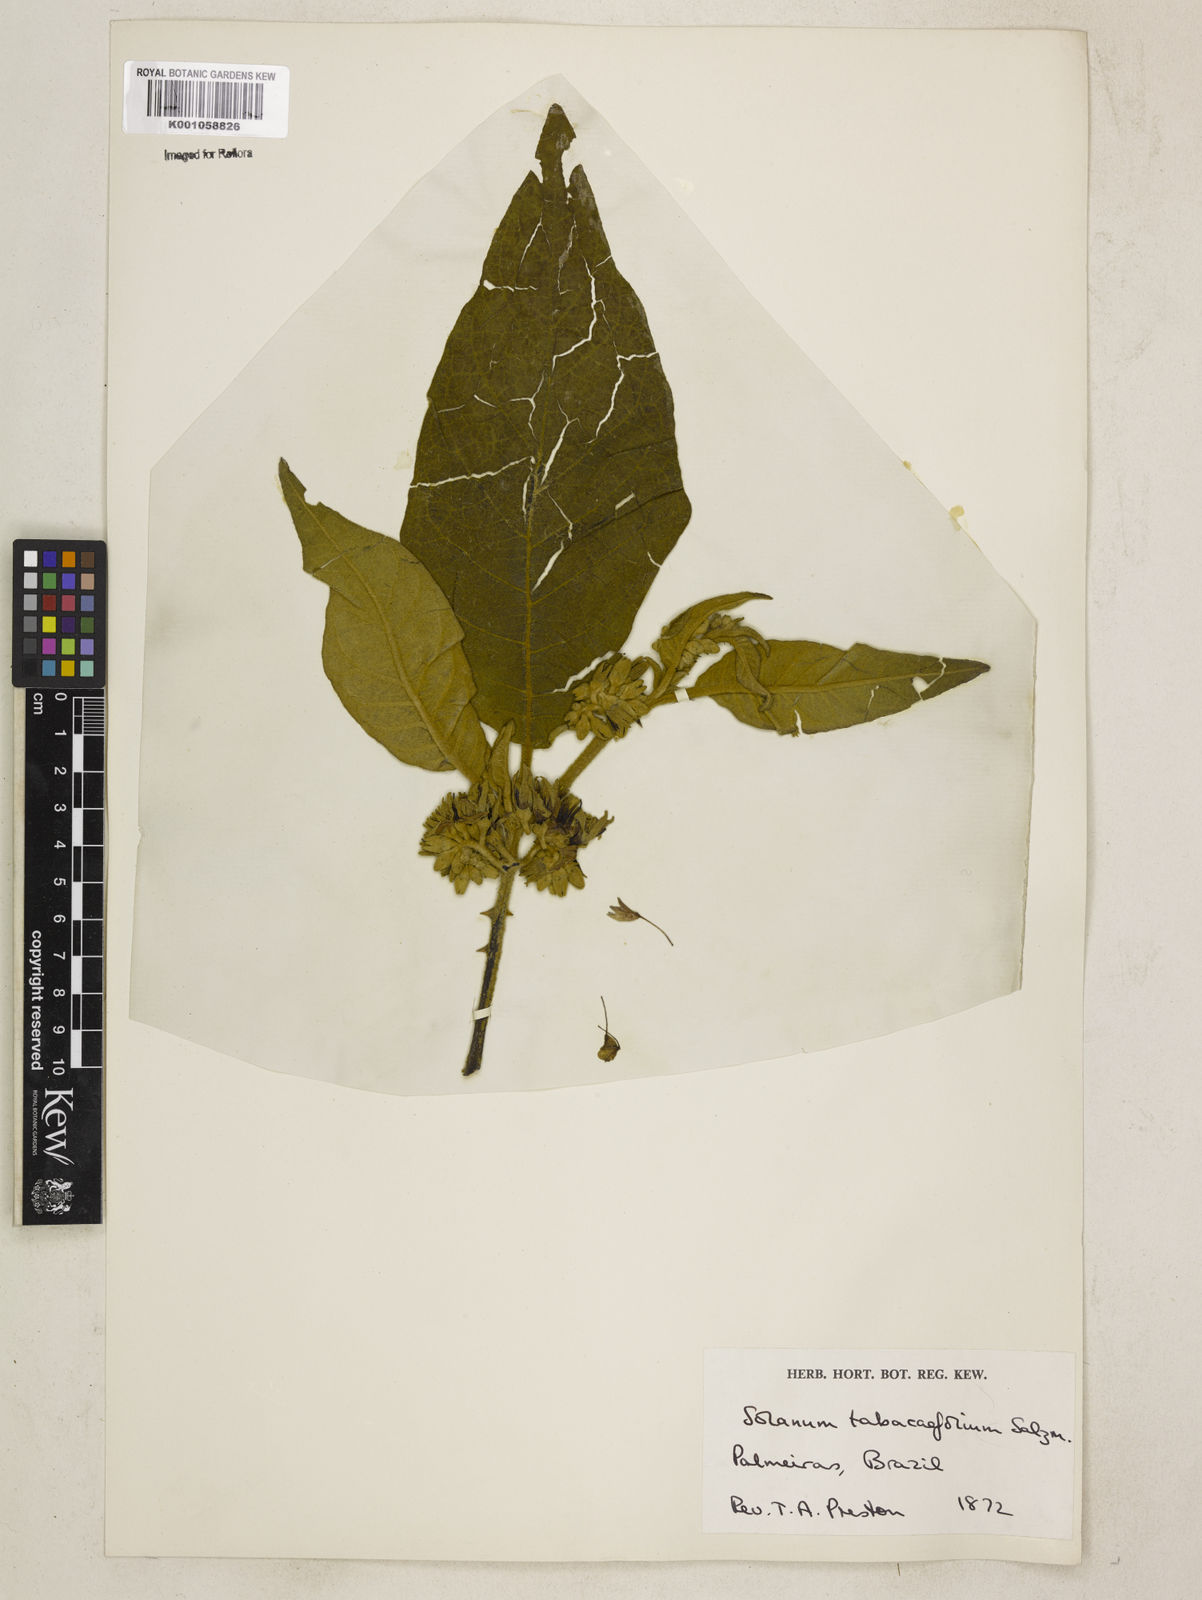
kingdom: Plantae
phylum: Tracheophyta
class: Magnoliopsida
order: Solanales
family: Solanaceae
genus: Solanum
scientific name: Solanum scuticum
